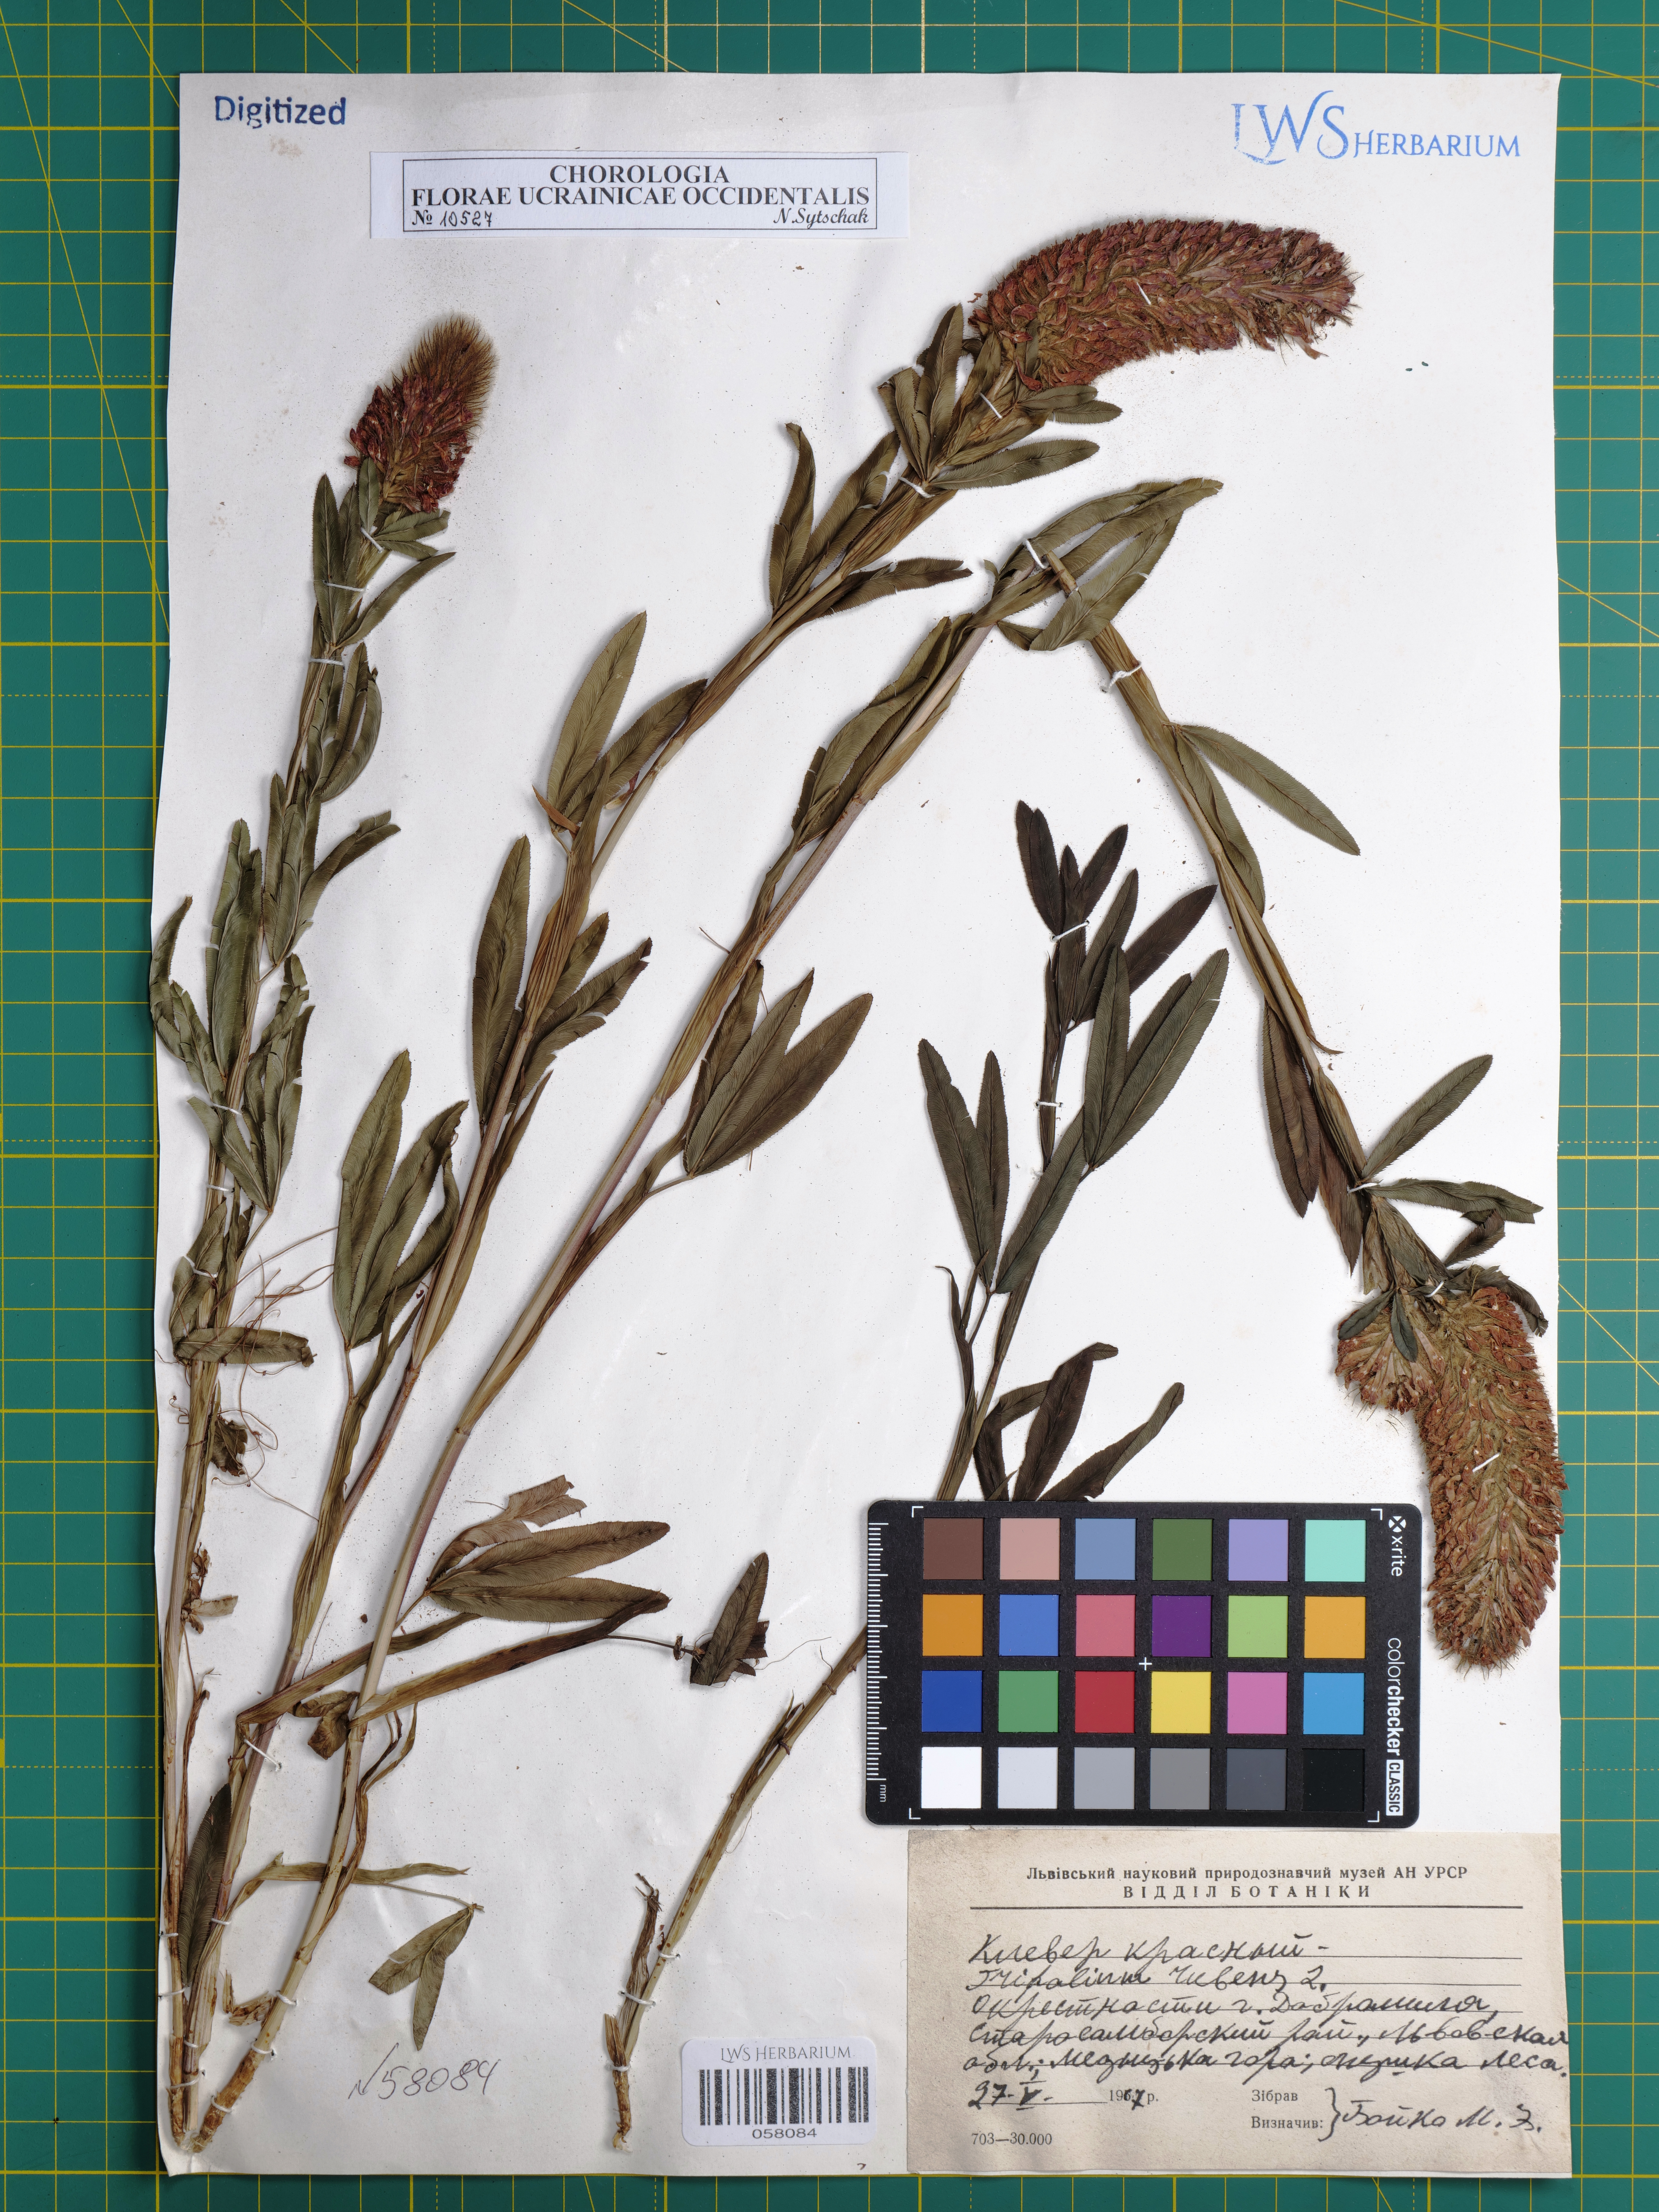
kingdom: Plantae
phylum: Tracheophyta
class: Magnoliopsida
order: Fabales
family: Fabaceae
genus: Trifolium
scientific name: Trifolium rubens
